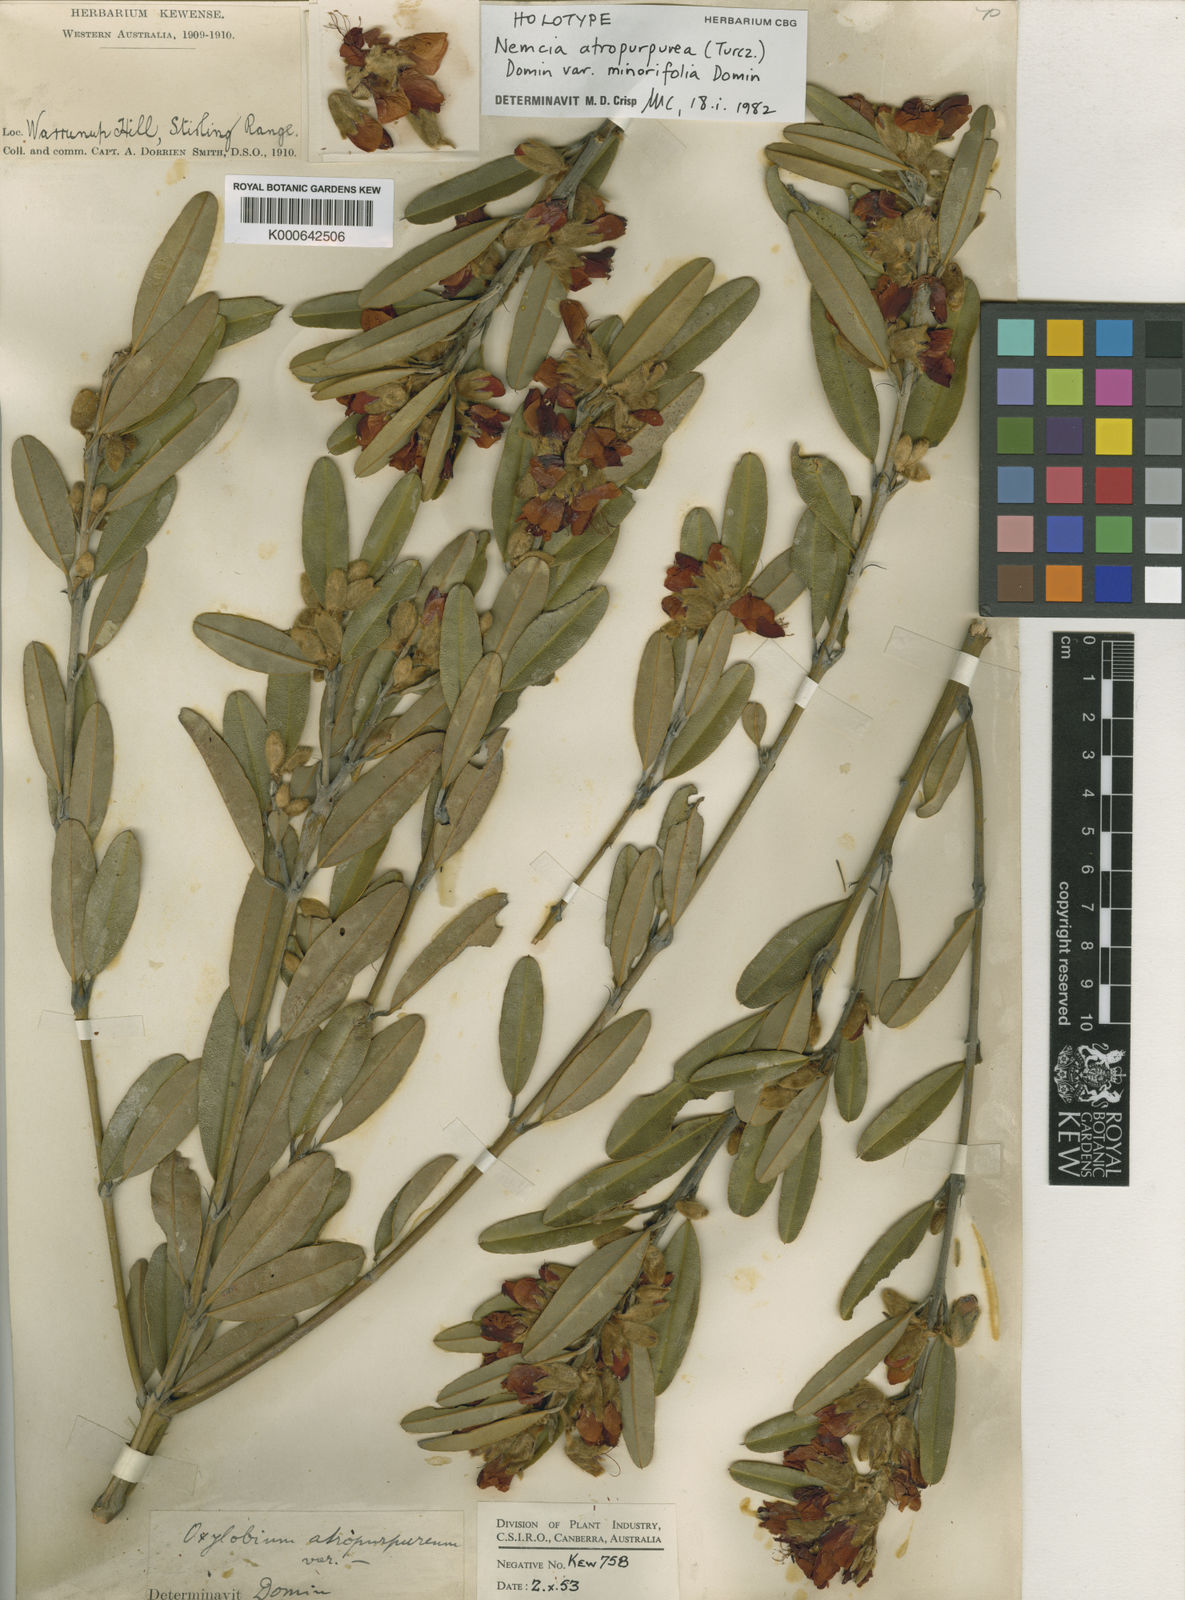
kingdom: Plantae
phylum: Tracheophyta
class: Magnoliopsida
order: Fabales
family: Fabaceae
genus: Gastrolobium
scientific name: Gastrolobium rubrum
